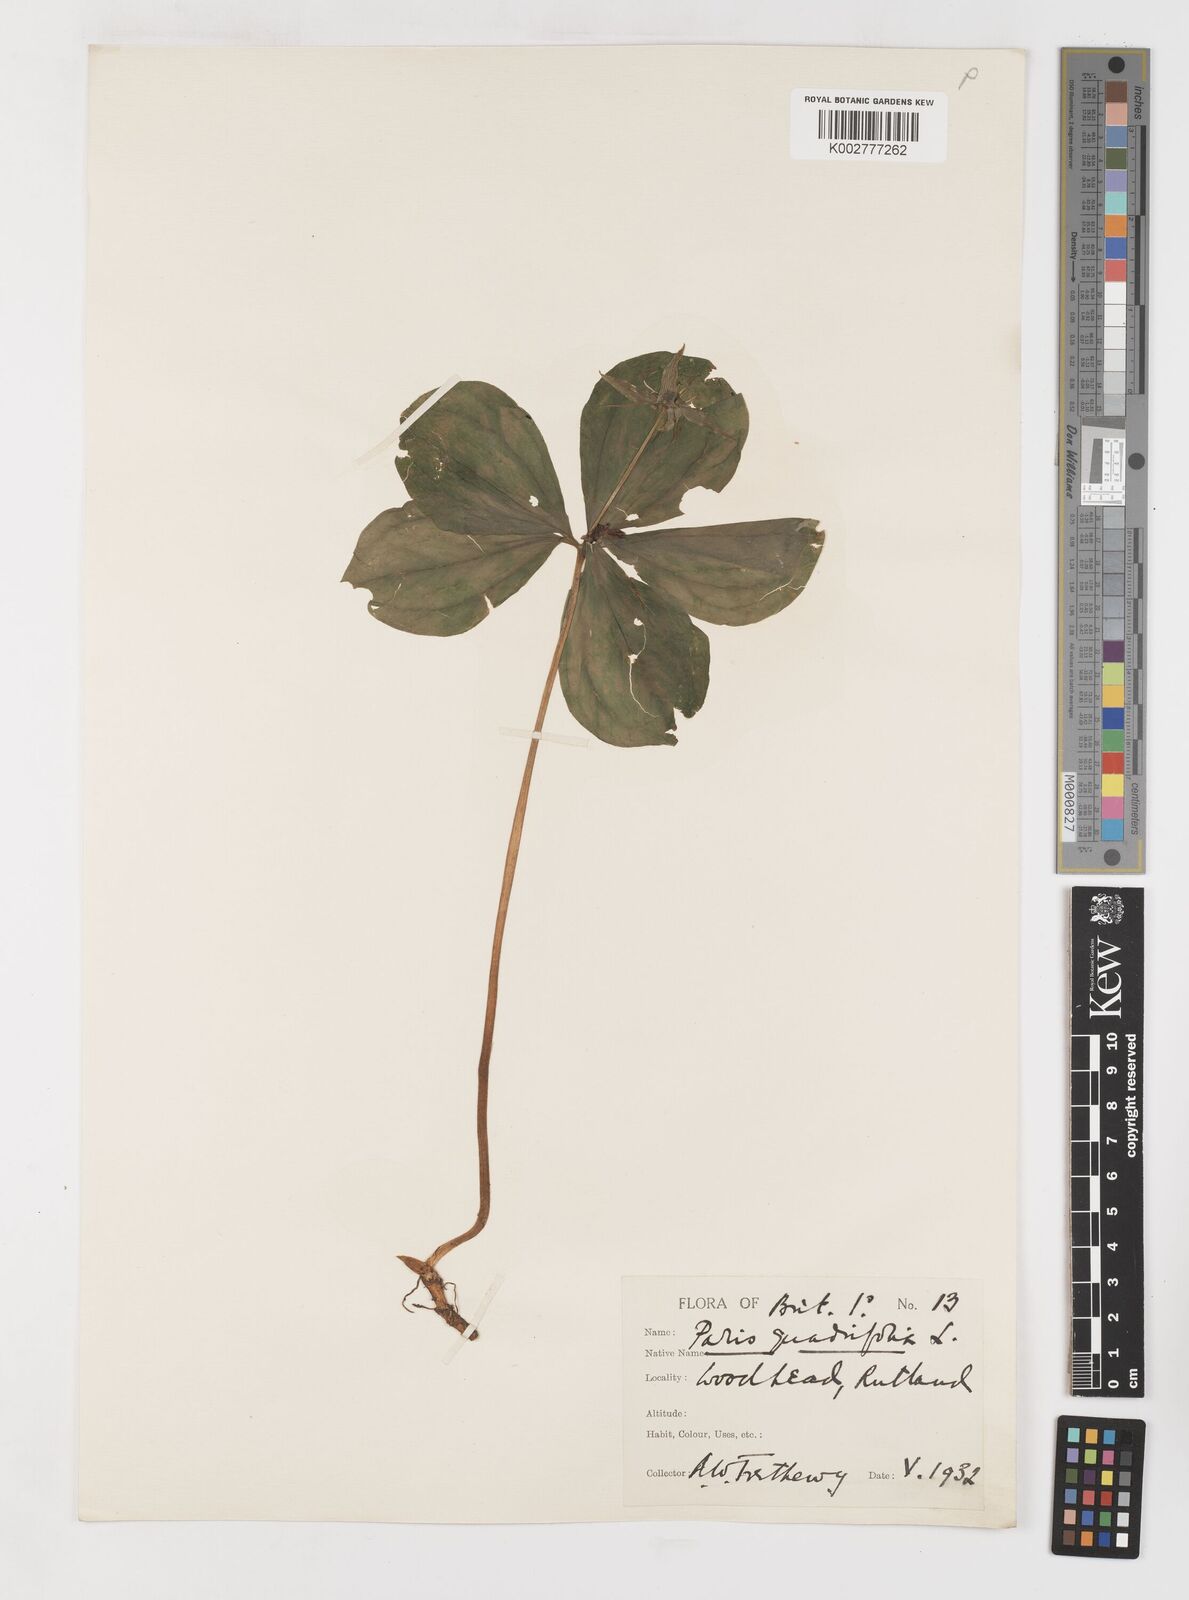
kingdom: Plantae
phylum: Tracheophyta
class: Liliopsida
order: Liliales
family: Melanthiaceae
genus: Paris
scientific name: Paris quadrifolia
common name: Herb-paris
